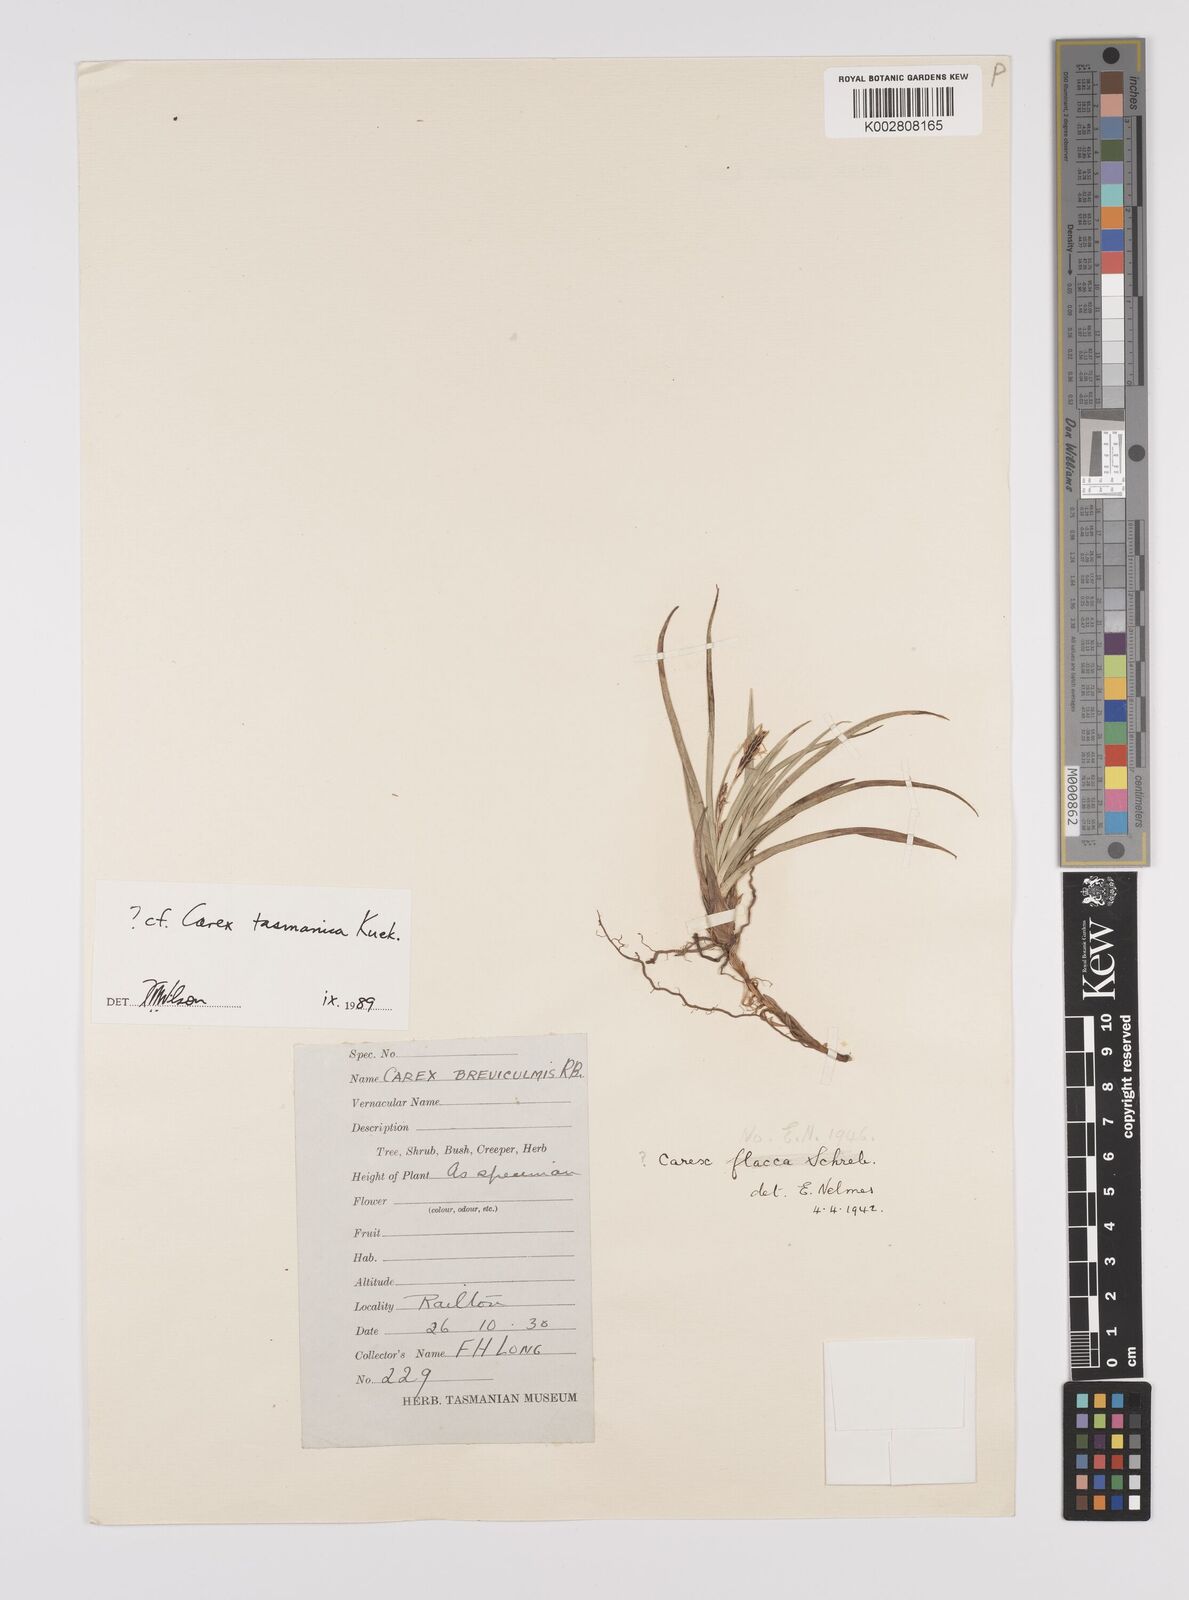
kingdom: Plantae
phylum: Tracheophyta
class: Liliopsida
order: Poales
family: Cyperaceae
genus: Carex
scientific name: Carex distans
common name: Distant sedge
